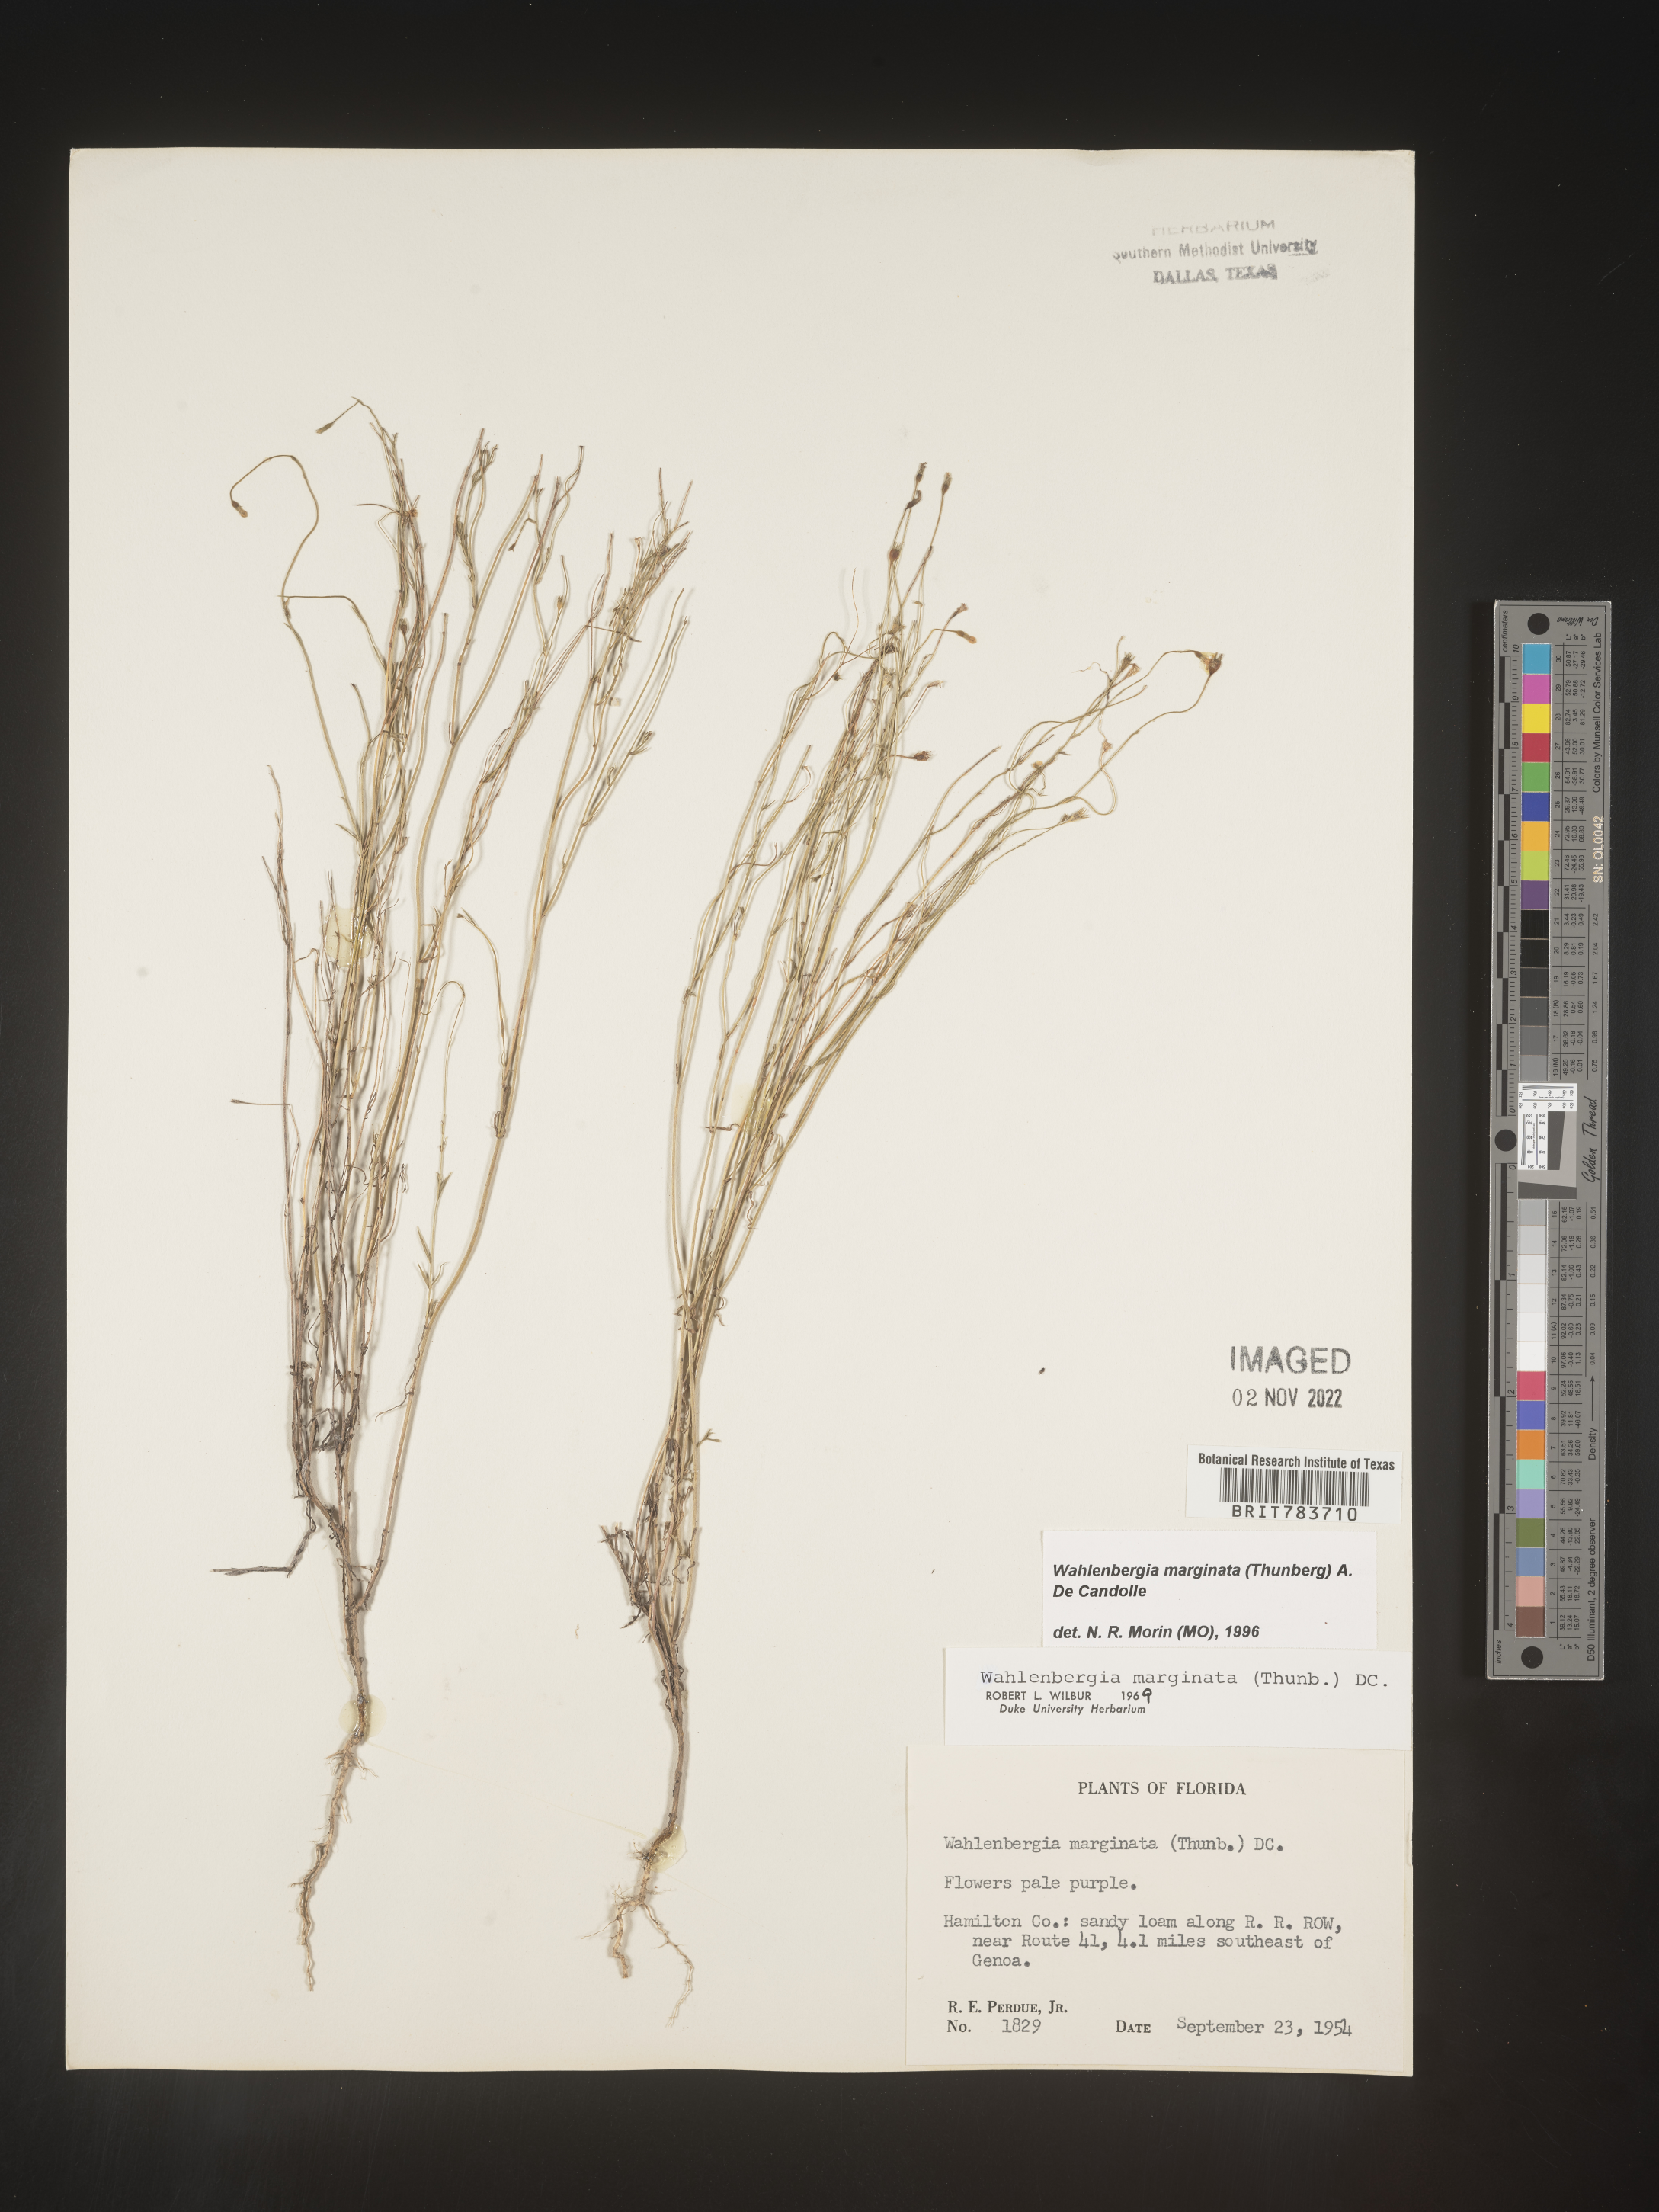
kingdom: Plantae
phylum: Tracheophyta
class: Magnoliopsida
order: Asterales
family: Campanulaceae
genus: Wahlenbergia
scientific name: Wahlenbergia marginata
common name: Southern rockbell
